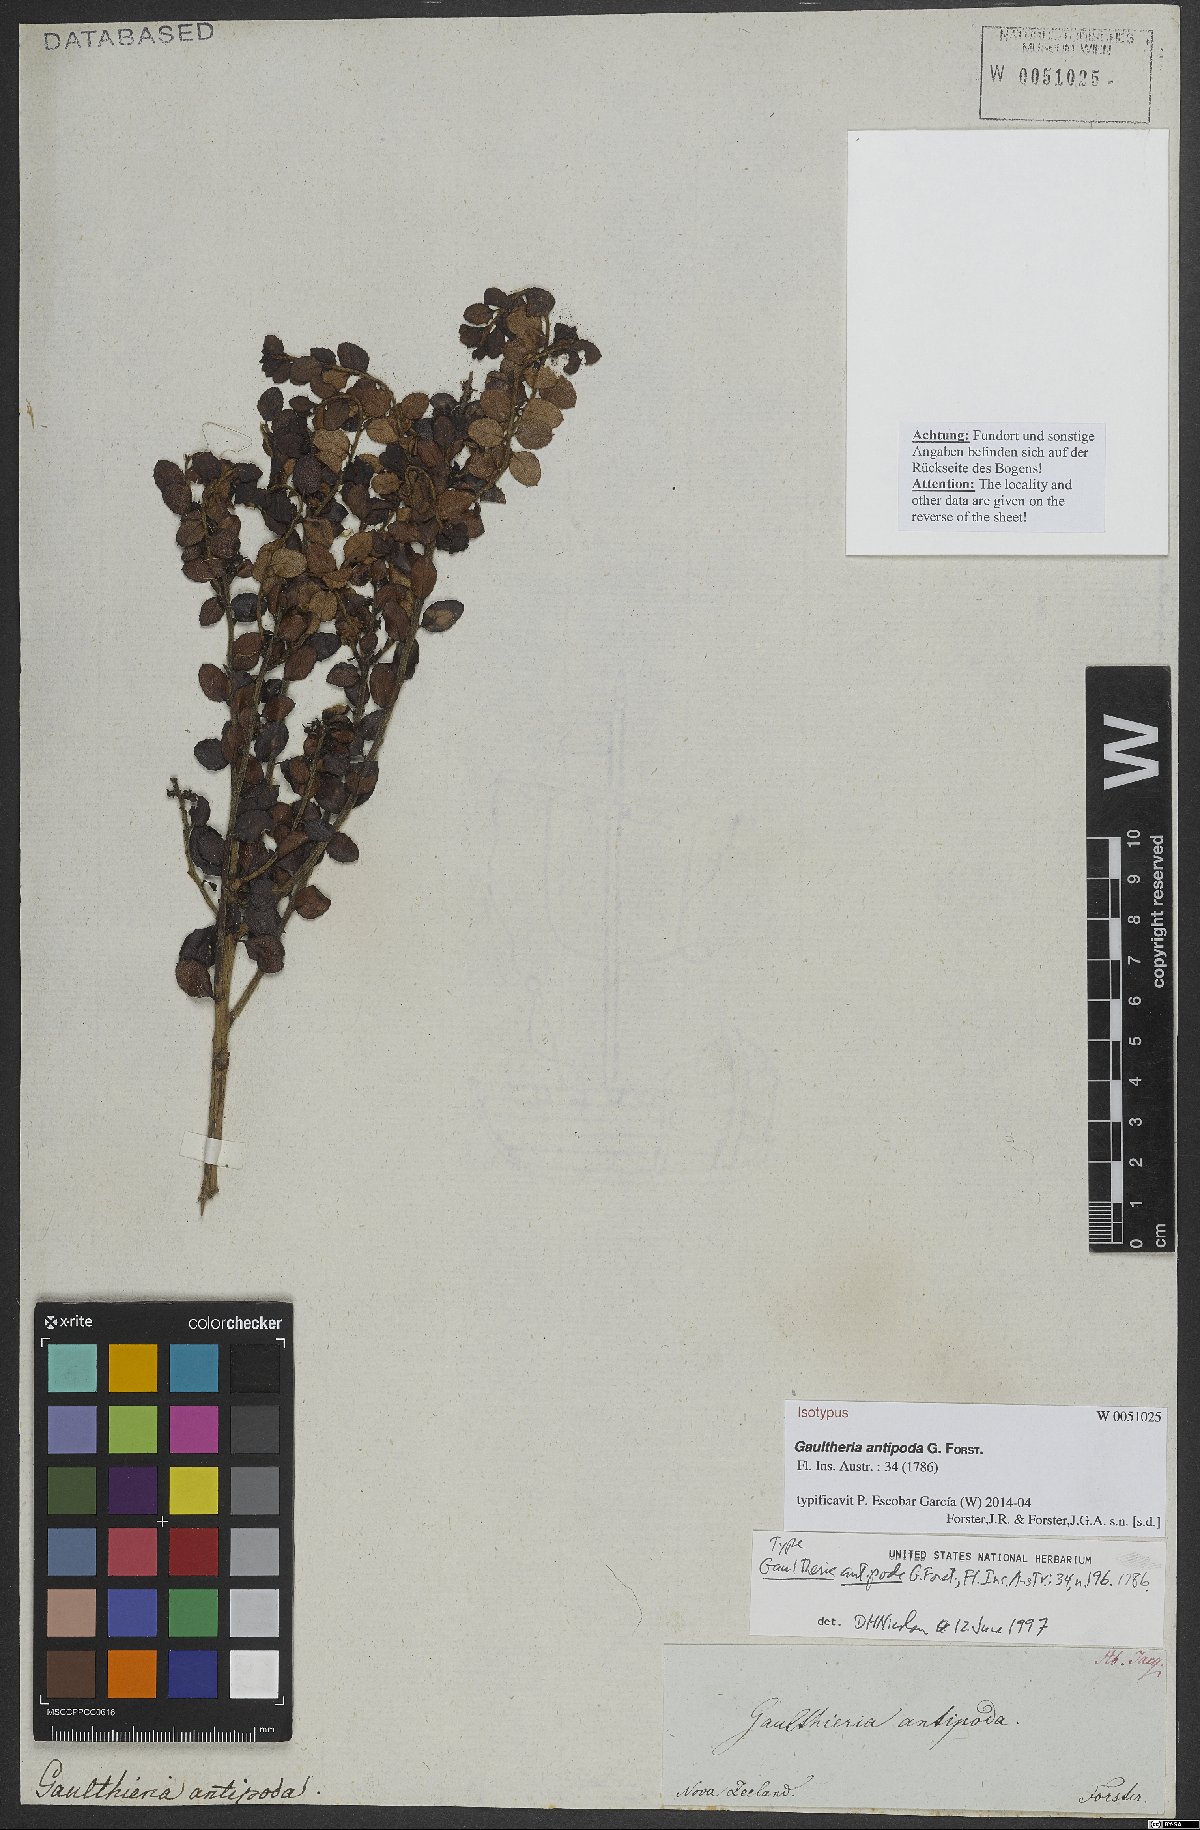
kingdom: Plantae
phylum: Tracheophyta
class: Magnoliopsida
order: Ericales
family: Ericaceae
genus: Gaultheria
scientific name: Gaultheria antipoda
